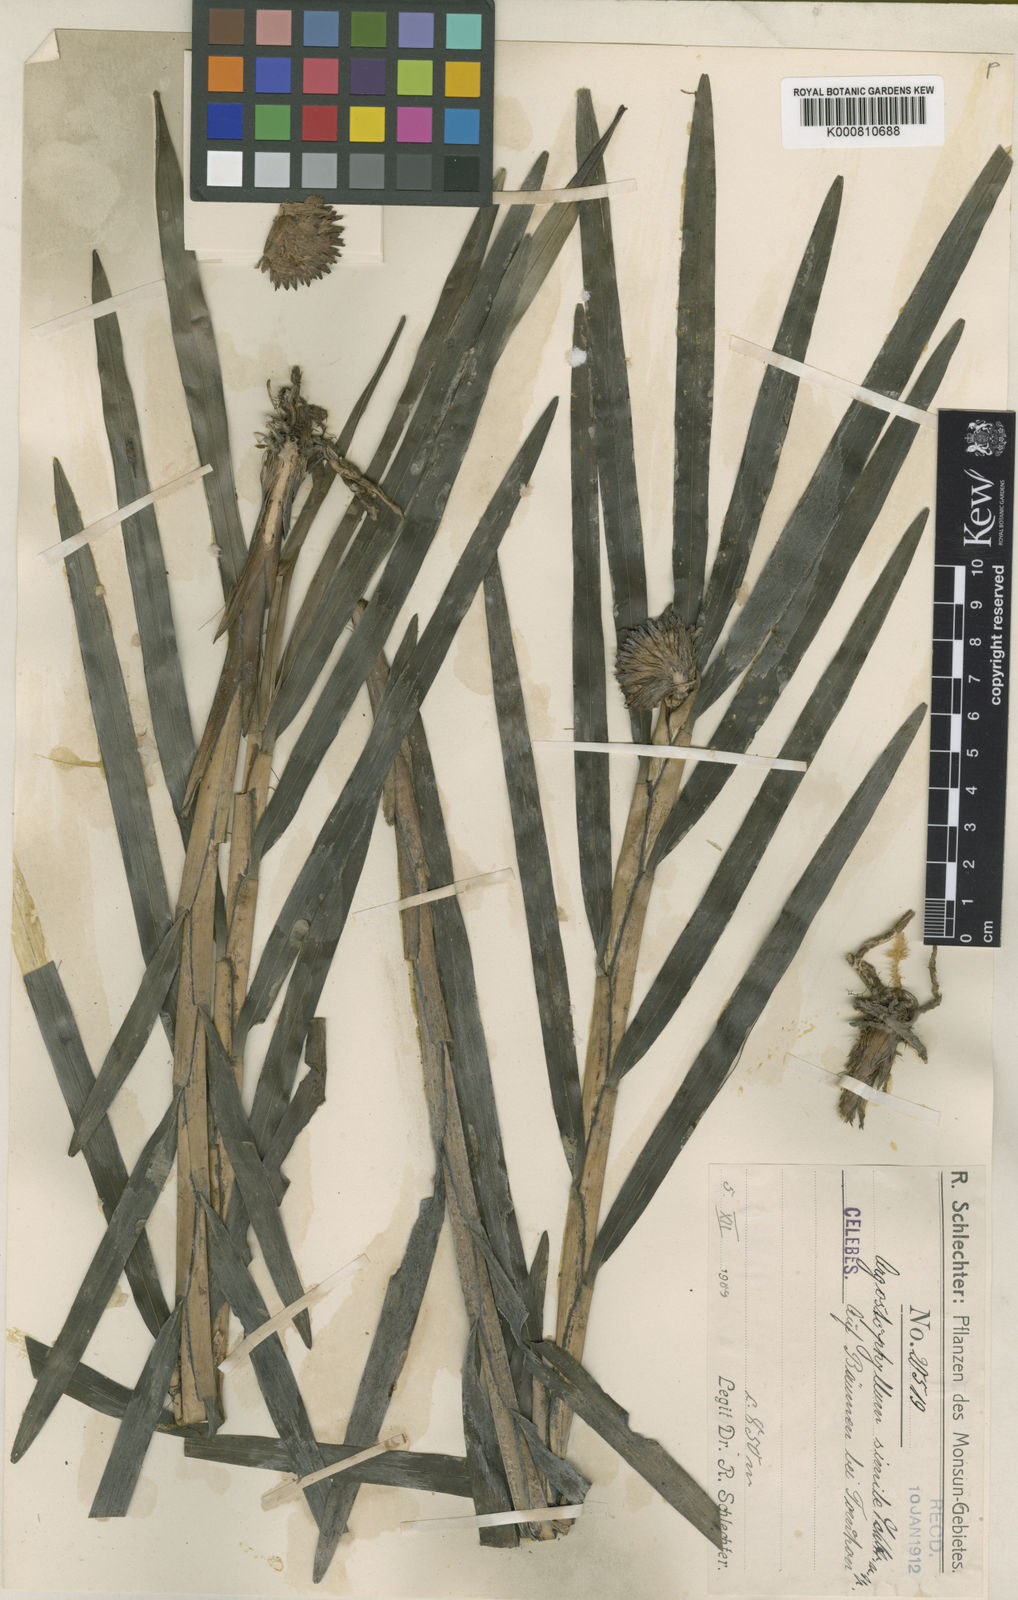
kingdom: Plantae
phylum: Tracheophyta
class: Liliopsida
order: Asparagales
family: Orchidaceae
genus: Agrostophyllum
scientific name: Agrostophyllum simile
